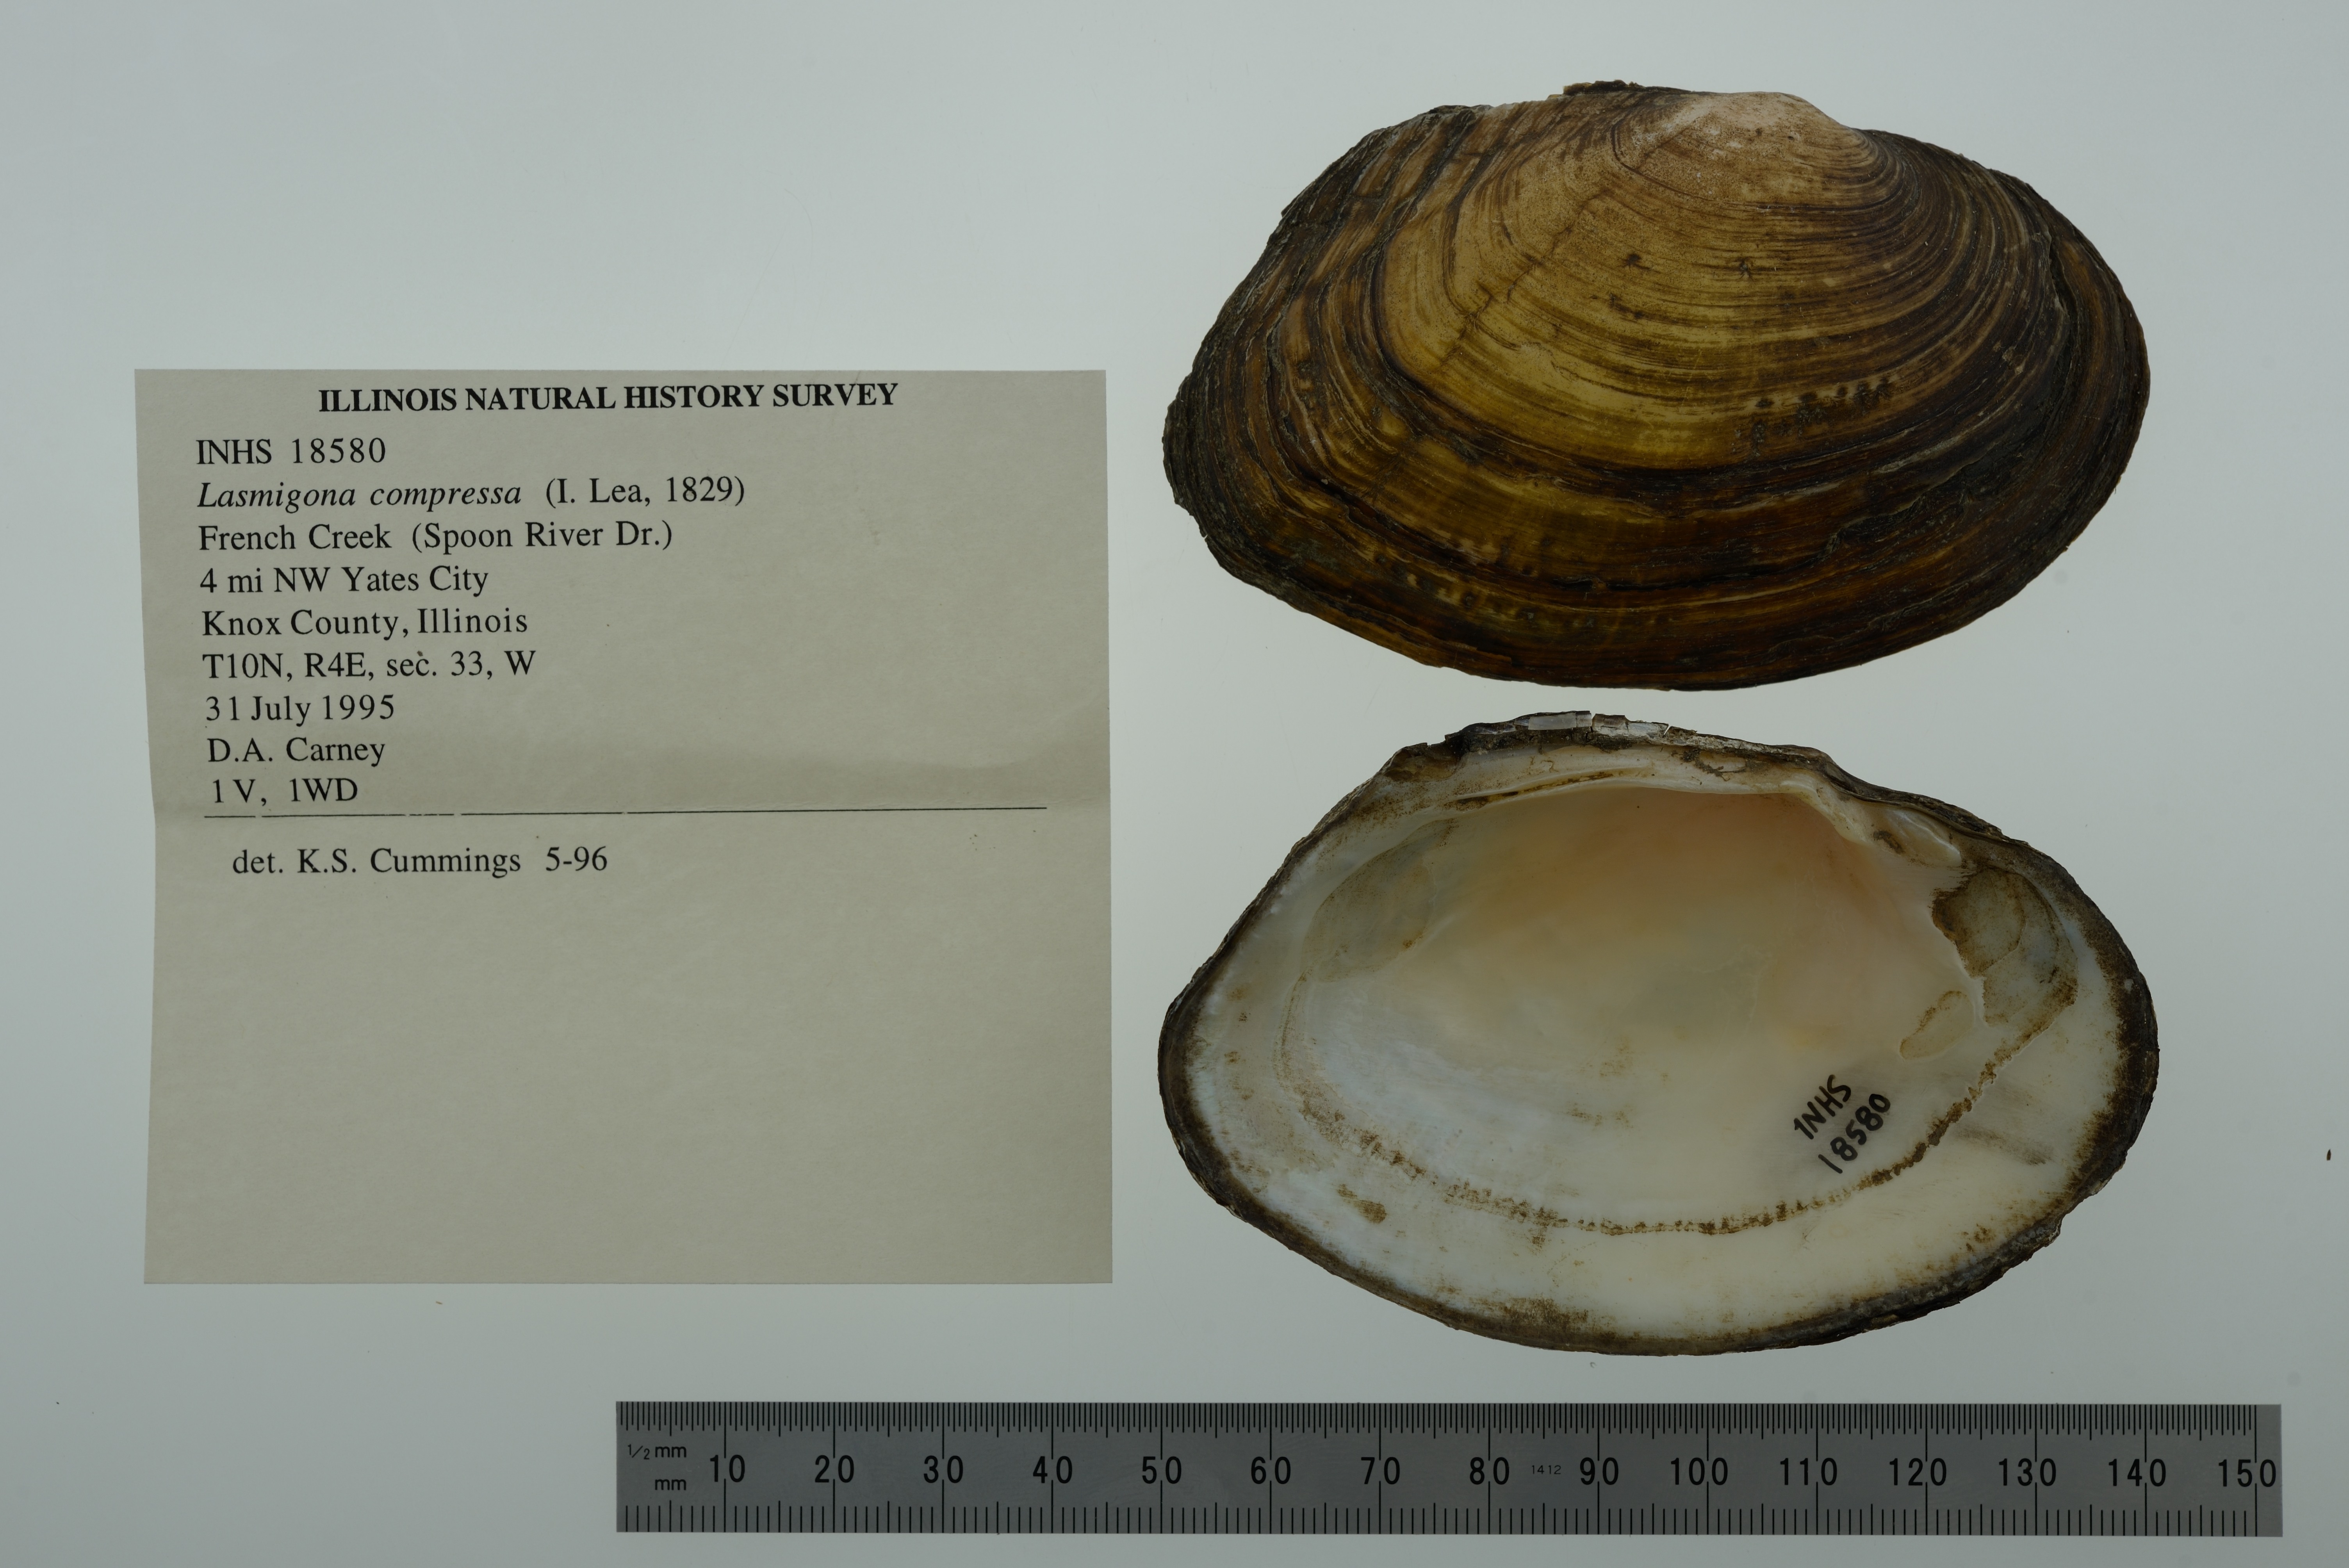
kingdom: Animalia
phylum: Mollusca
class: Bivalvia
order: Unionida
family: Unionidae
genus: Lasmigona
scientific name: Lasmigona compressa
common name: Creek heelsplitter
